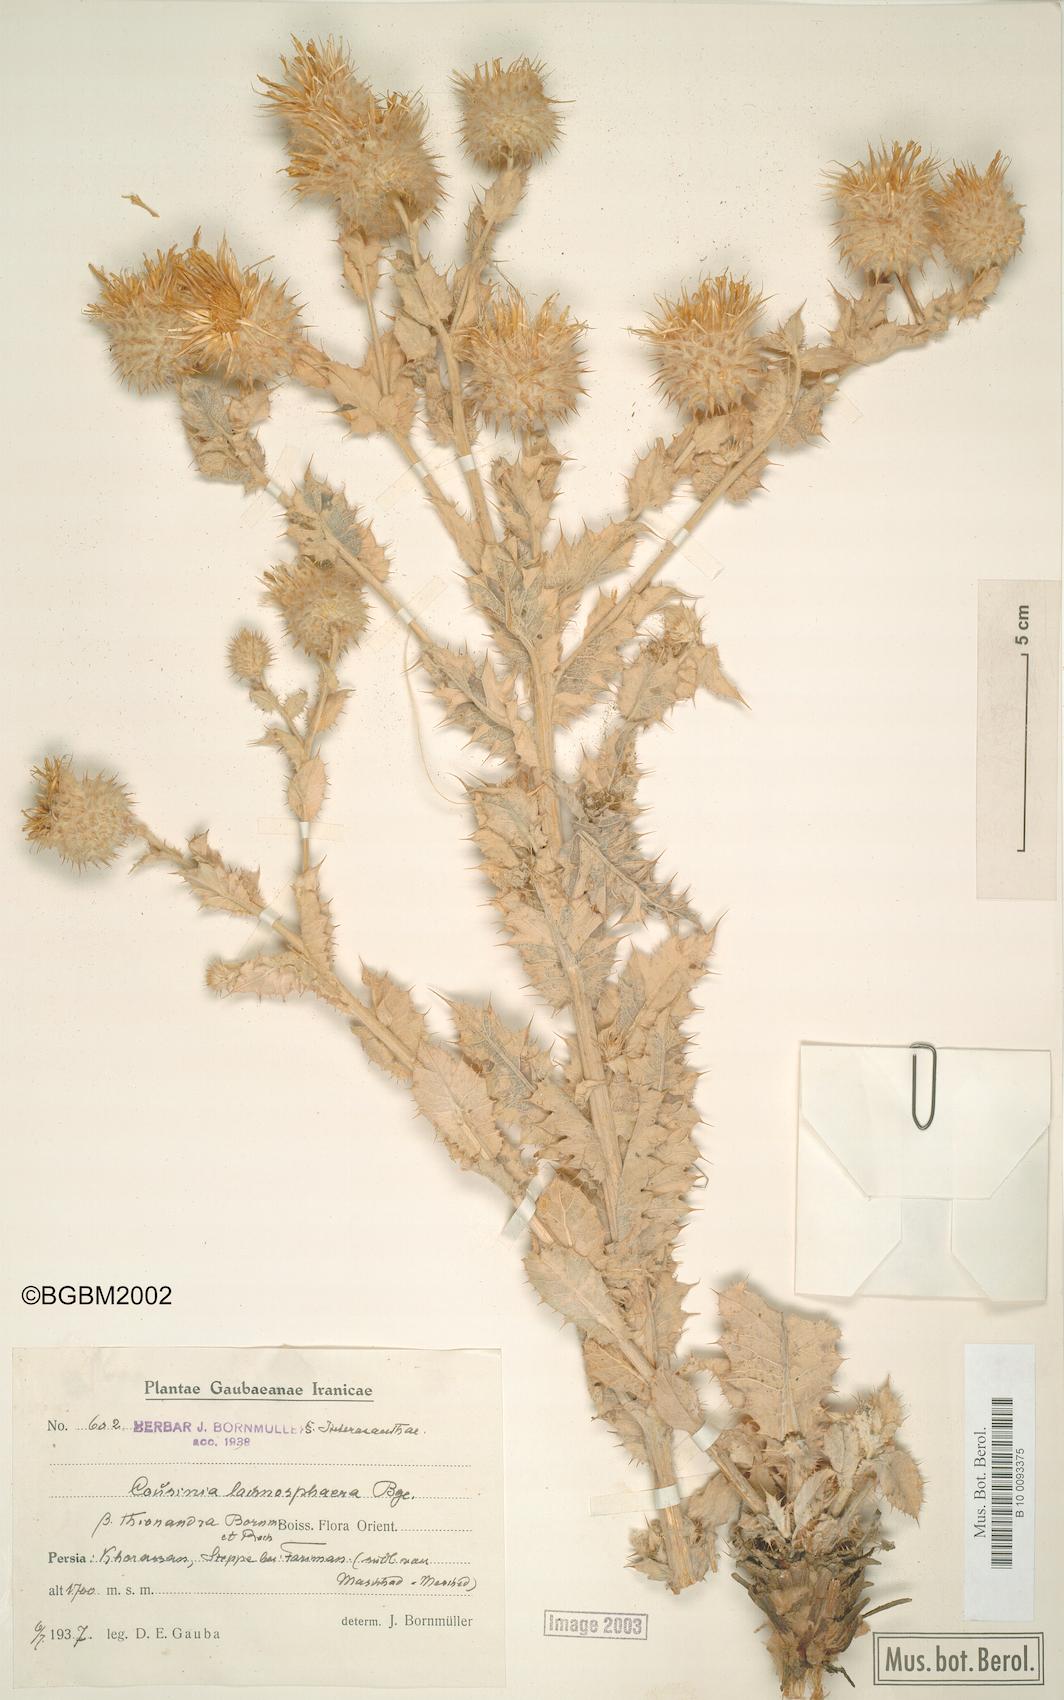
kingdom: Plantae
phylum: Tracheophyta
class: Magnoliopsida
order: Asterales
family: Asteraceae
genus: Cousinia
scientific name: Cousinia lachnosphaera
